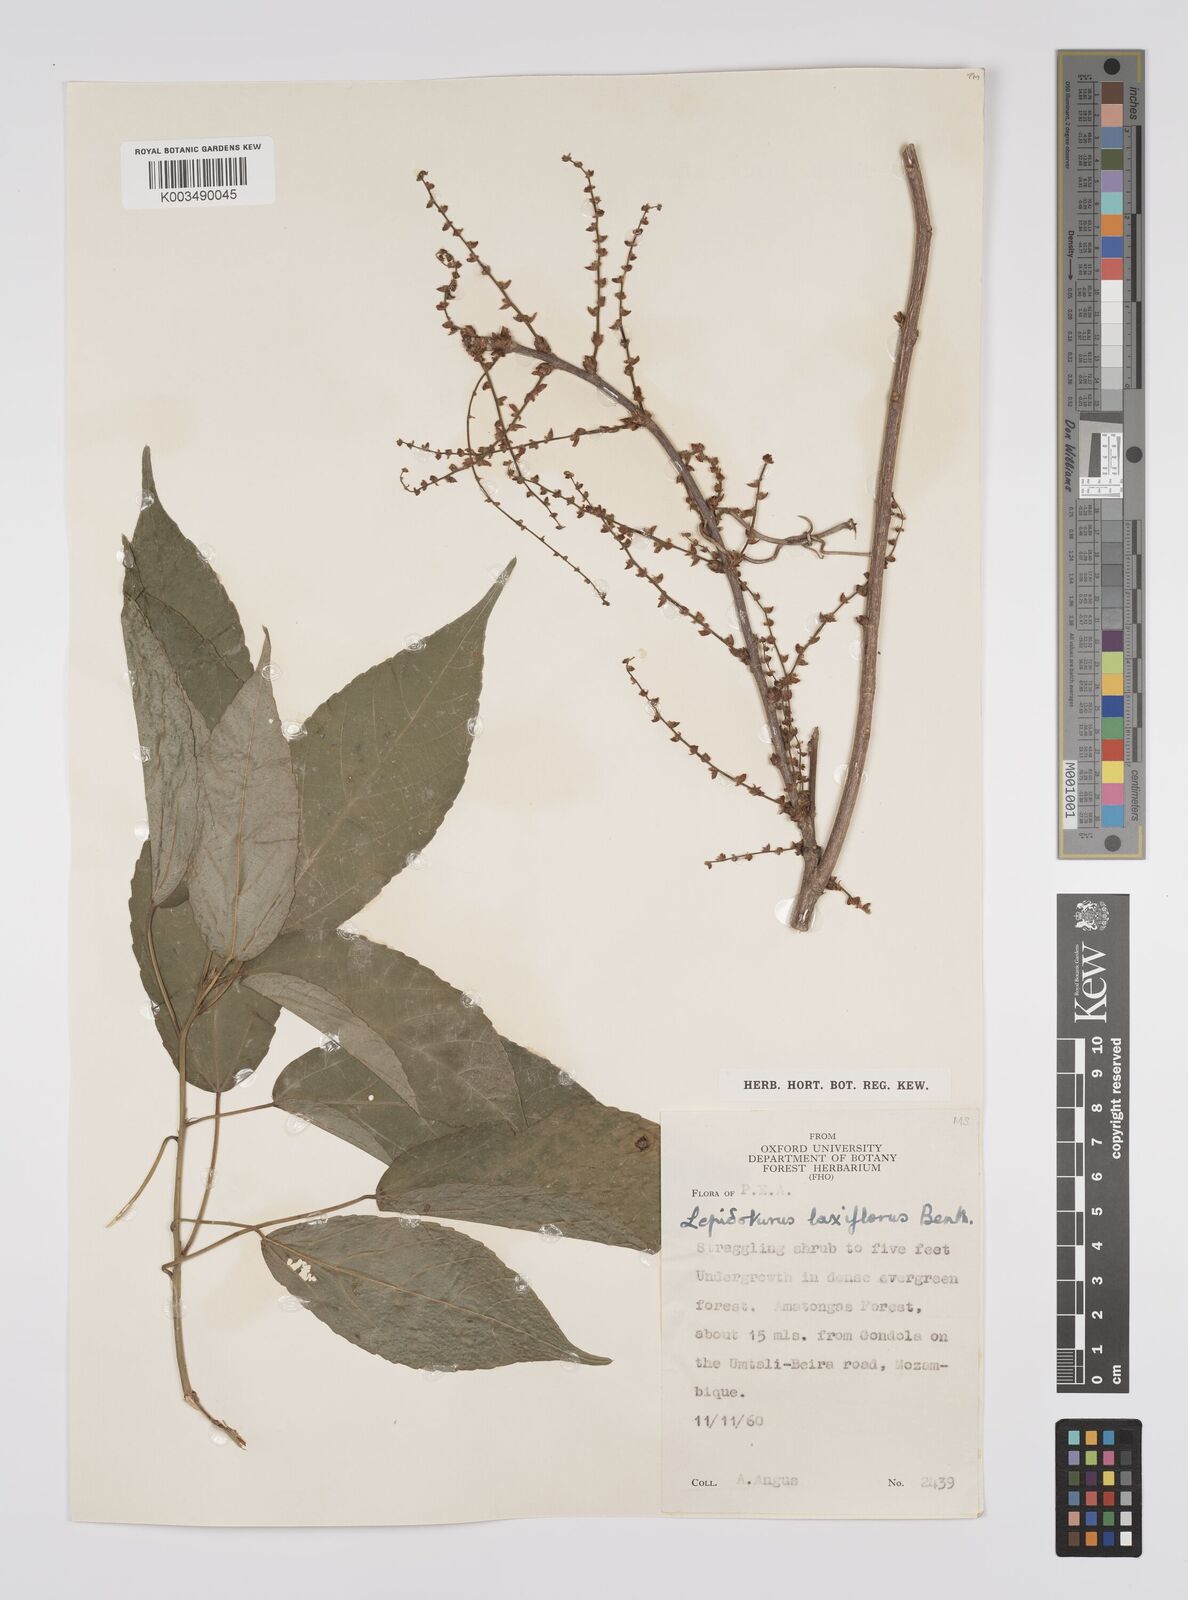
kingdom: Plantae
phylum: Tracheophyta
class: Magnoliopsida
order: Malpighiales
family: Euphorbiaceae
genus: Alchornea
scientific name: Alchornea laxiflora
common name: Lowveld bead-string
